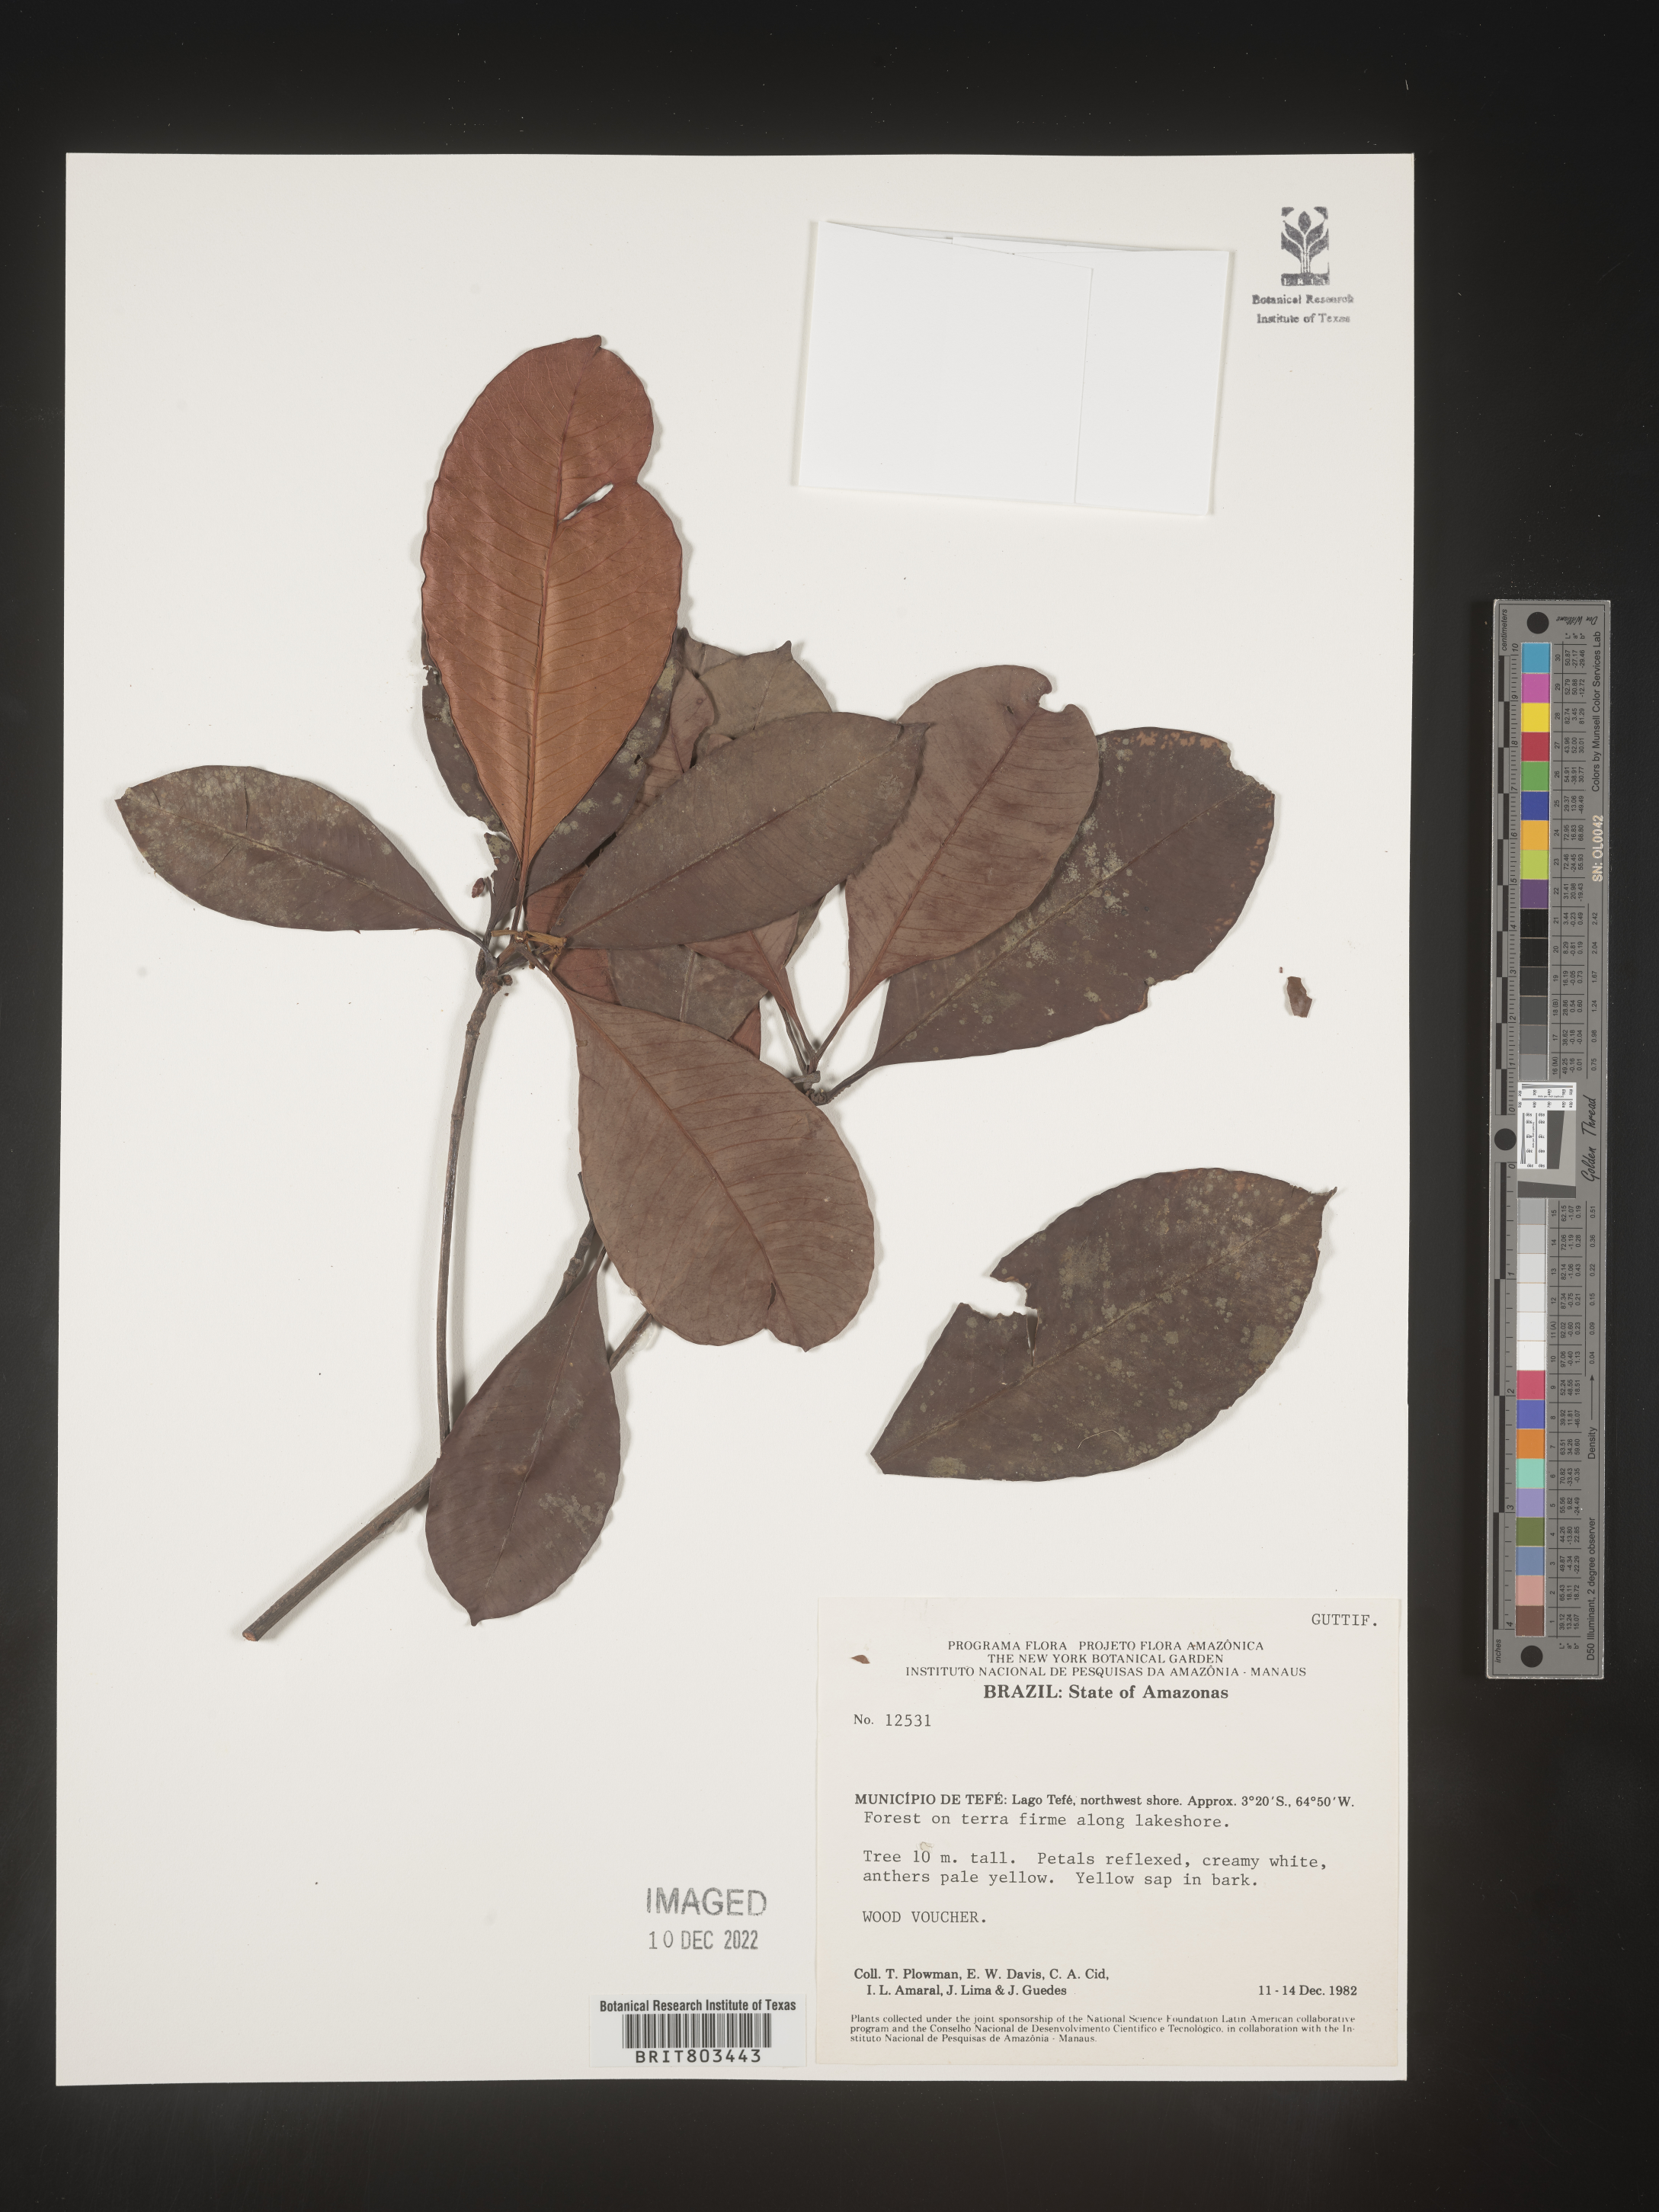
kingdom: Plantae
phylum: Tracheophyta
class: Magnoliopsida
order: Malpighiales
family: Clusiaceae
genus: Tovomita
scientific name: Tovomita
